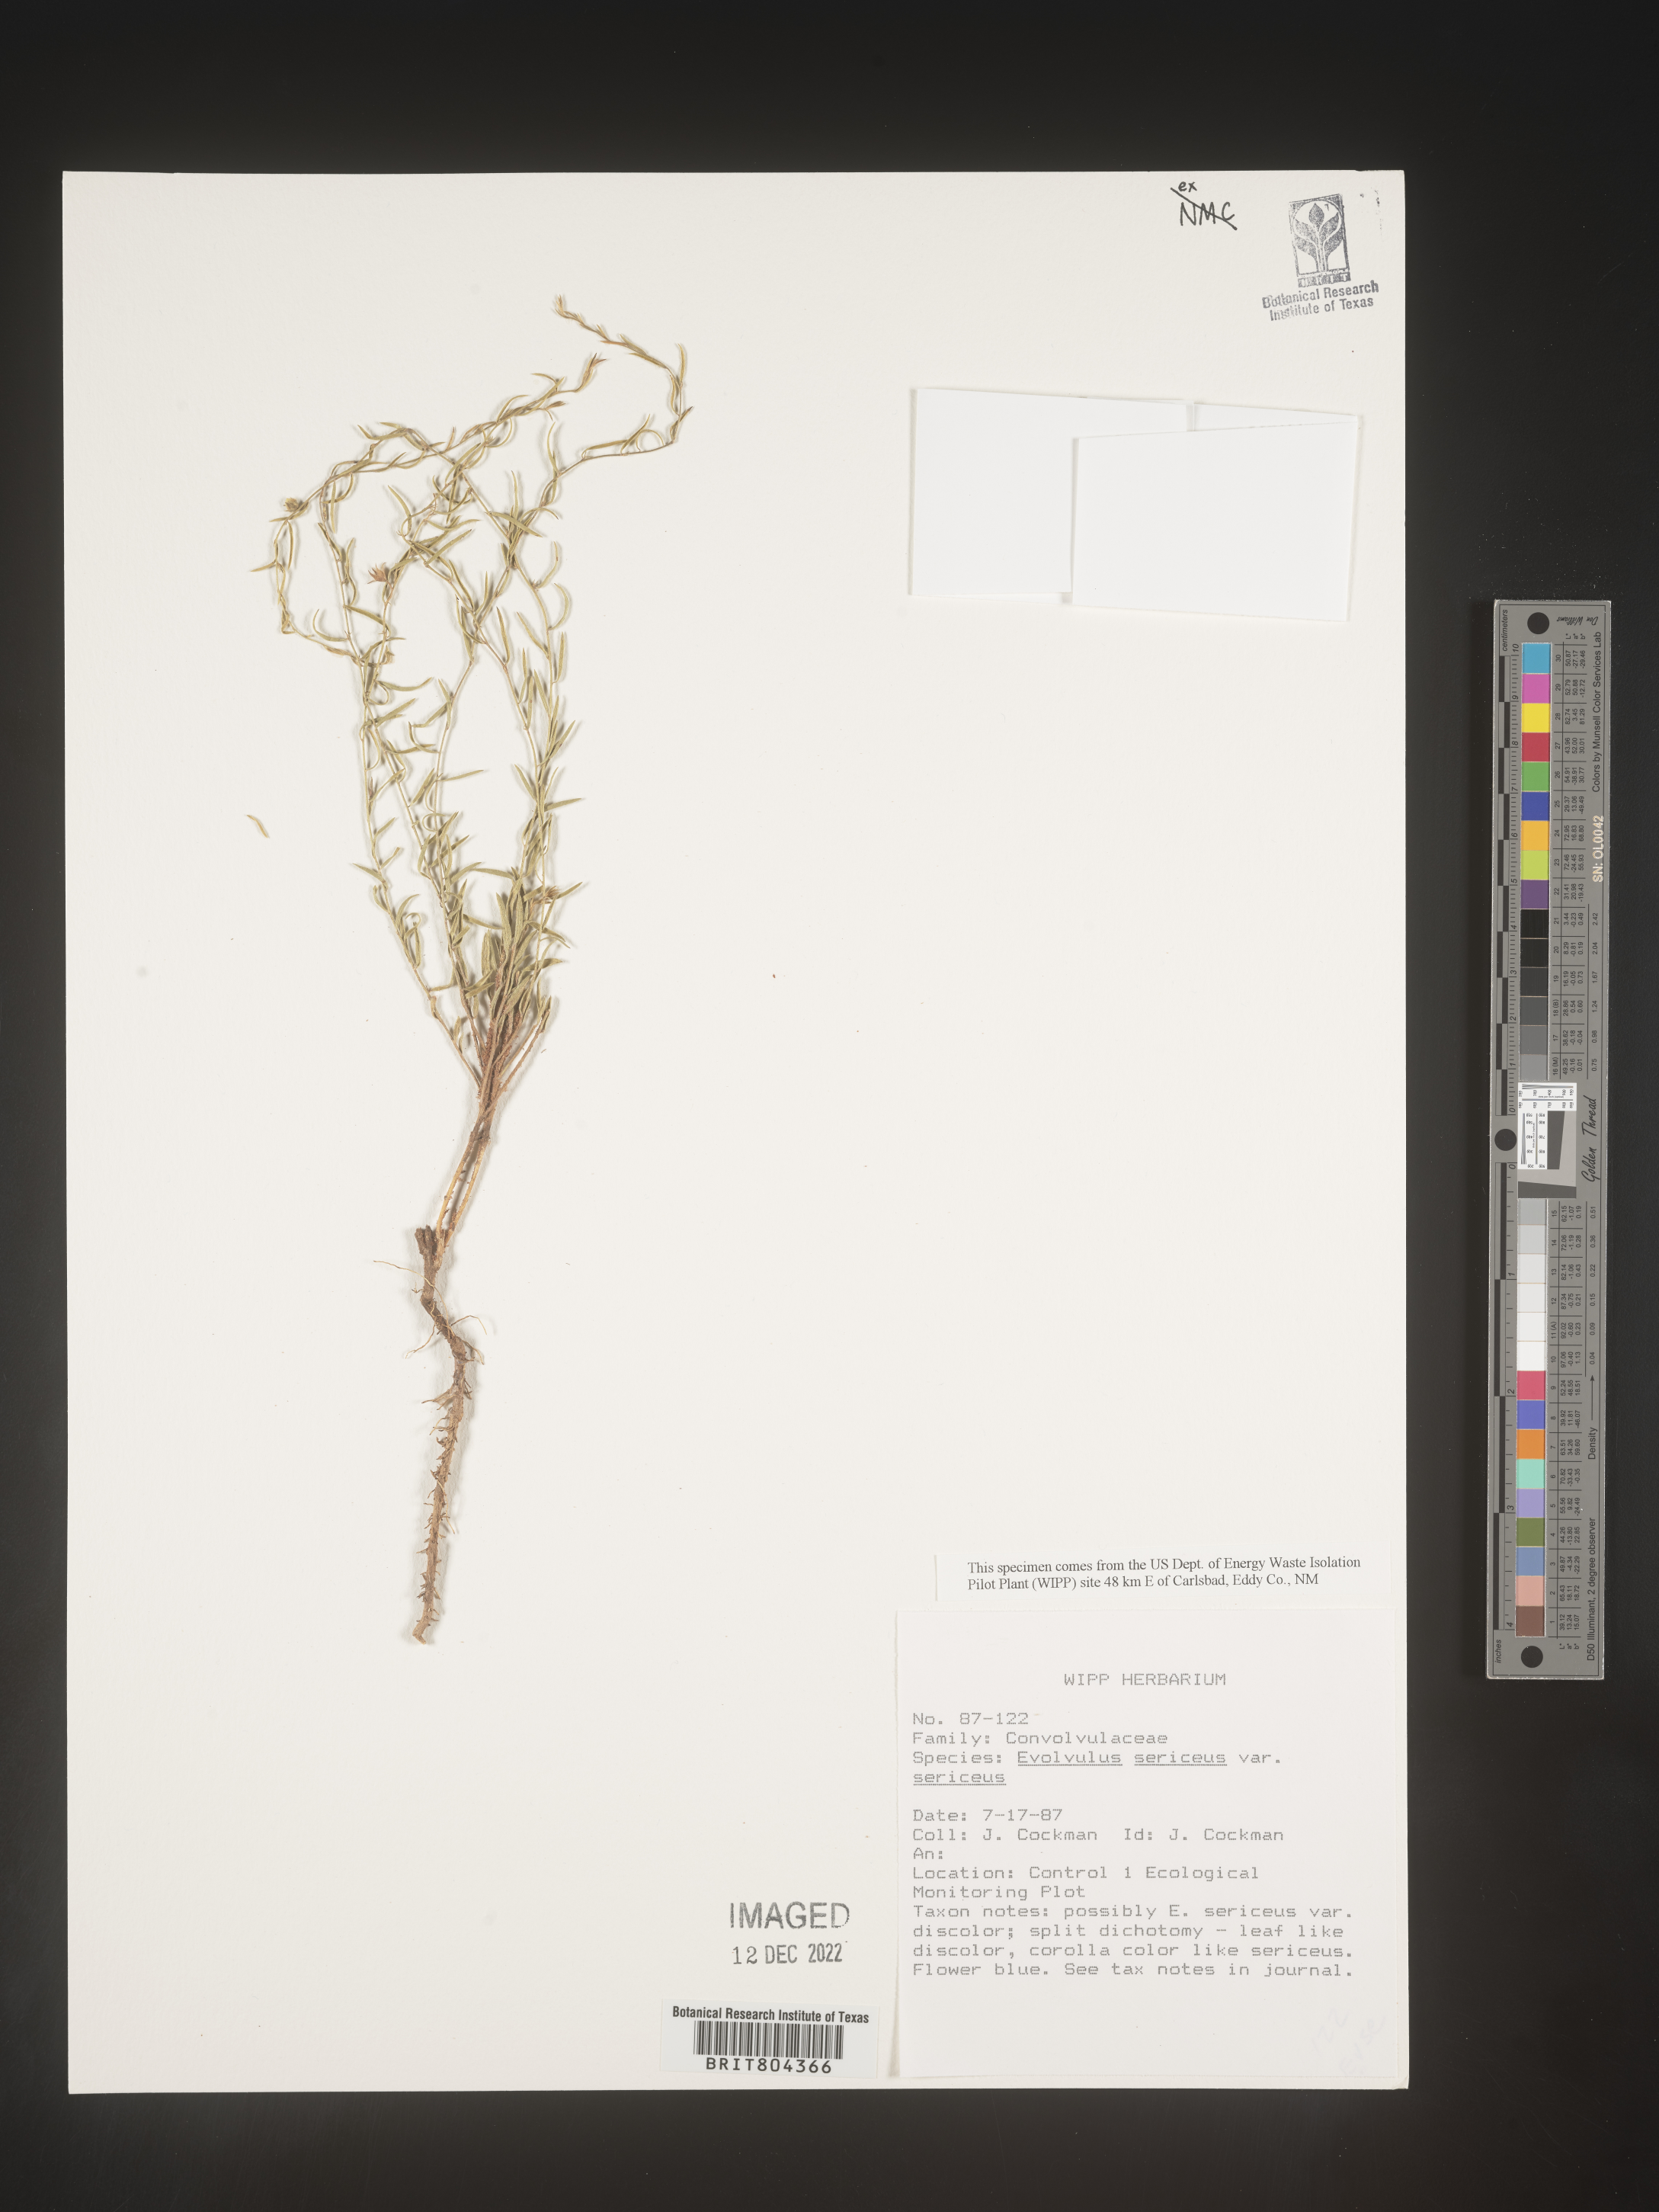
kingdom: Plantae
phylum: Tracheophyta
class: Magnoliopsida
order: Solanales
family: Convolvulaceae
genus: Evolvulus
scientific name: Evolvulus sericeus
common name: Blue dots
